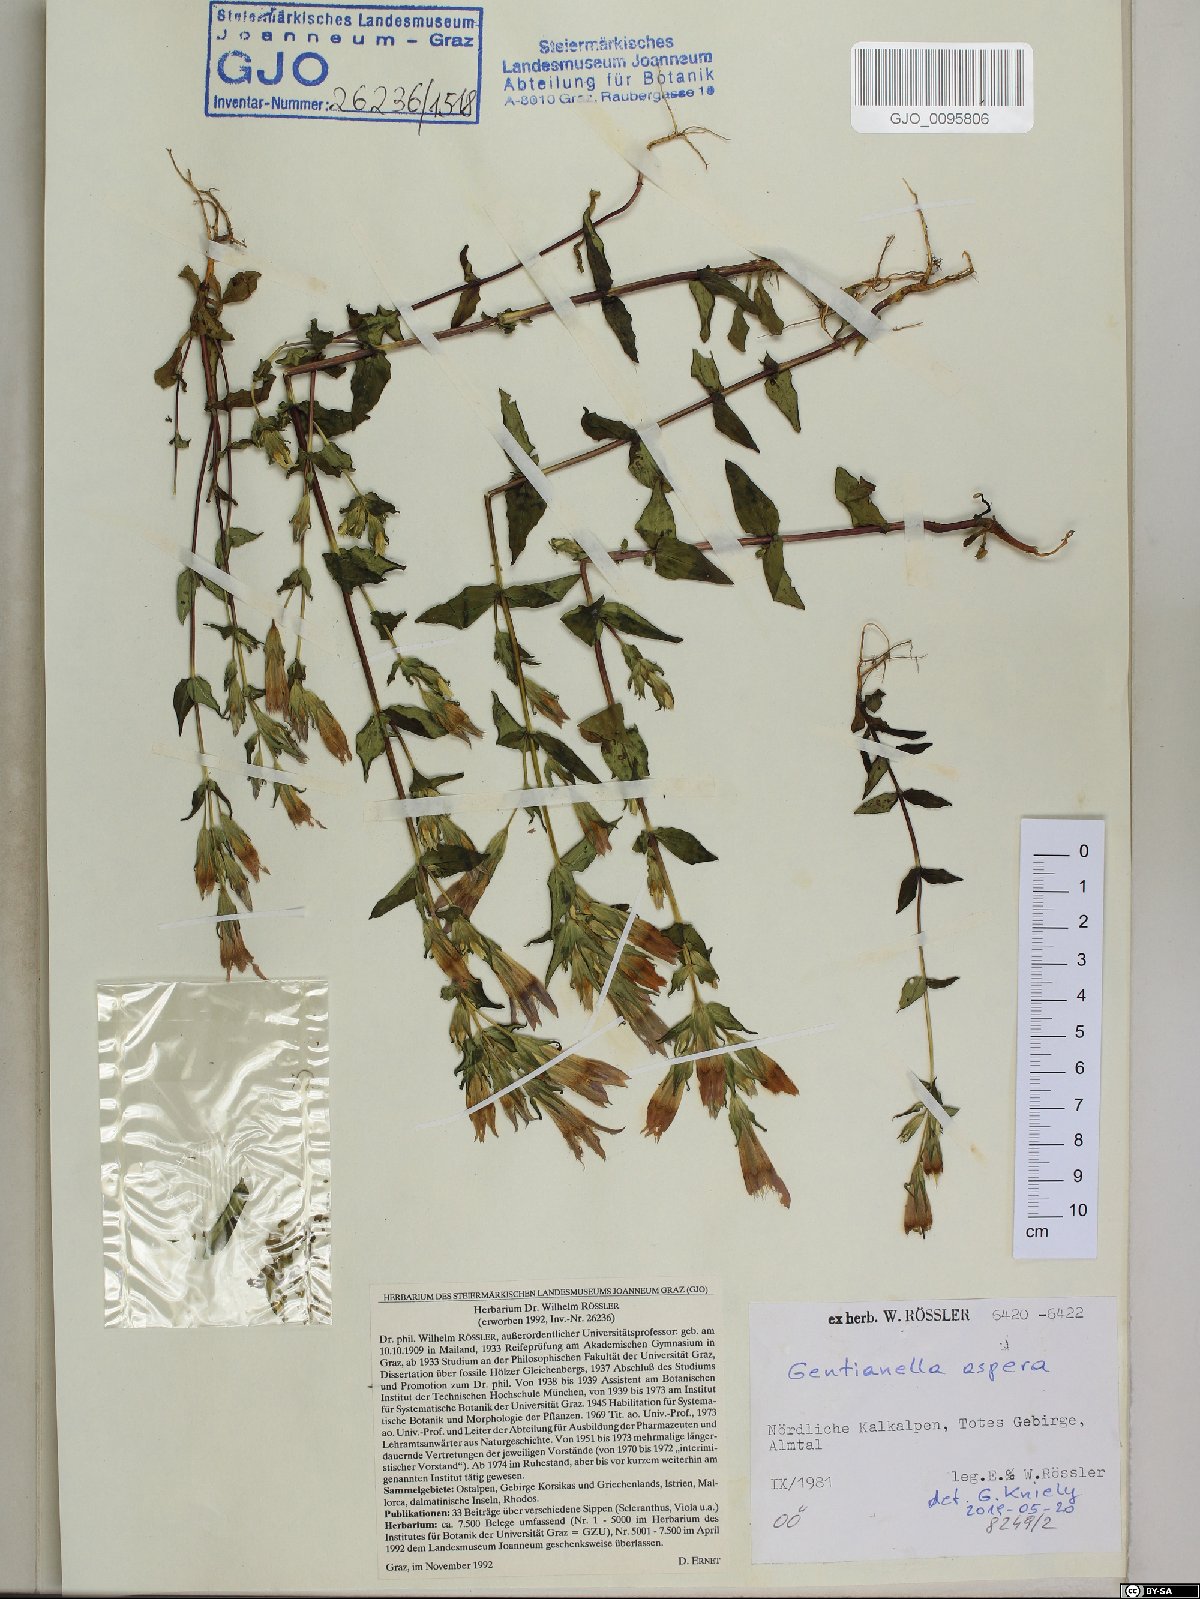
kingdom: Plantae
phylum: Tracheophyta
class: Magnoliopsida
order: Gentianales
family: Gentianaceae
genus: Gentianella
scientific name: Gentianella obtusifolia
